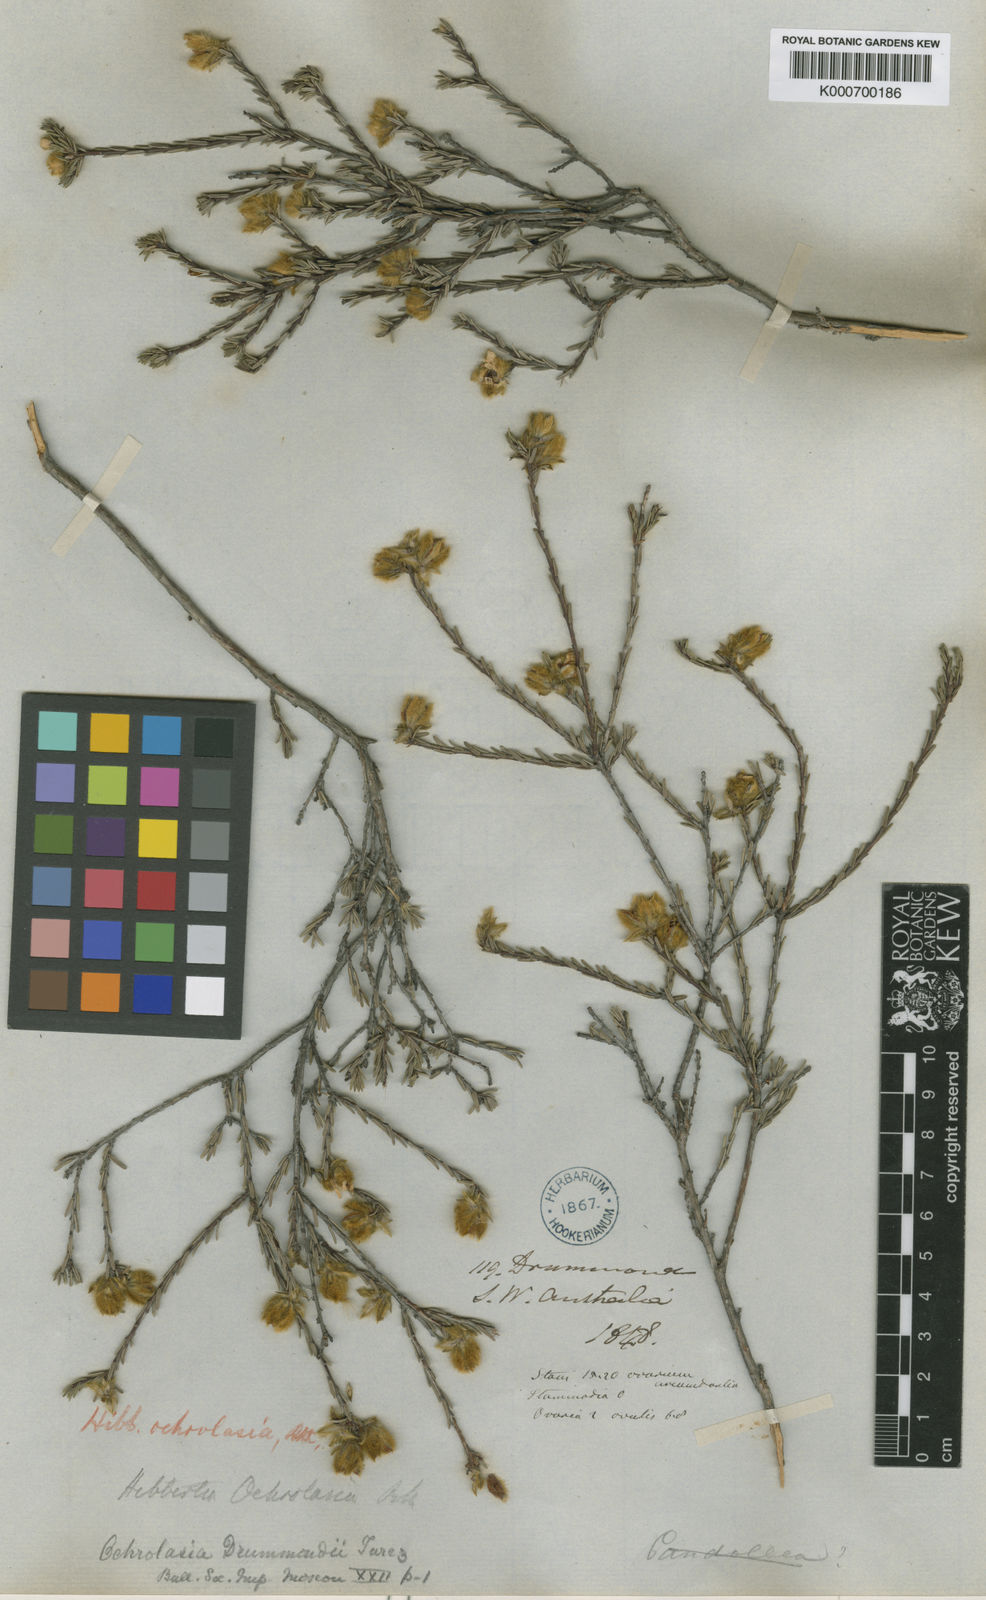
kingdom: Plantae
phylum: Tracheophyta
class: Magnoliopsida
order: Dilleniales
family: Dilleniaceae
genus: Hibbertia
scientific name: Hibbertia drummondii
